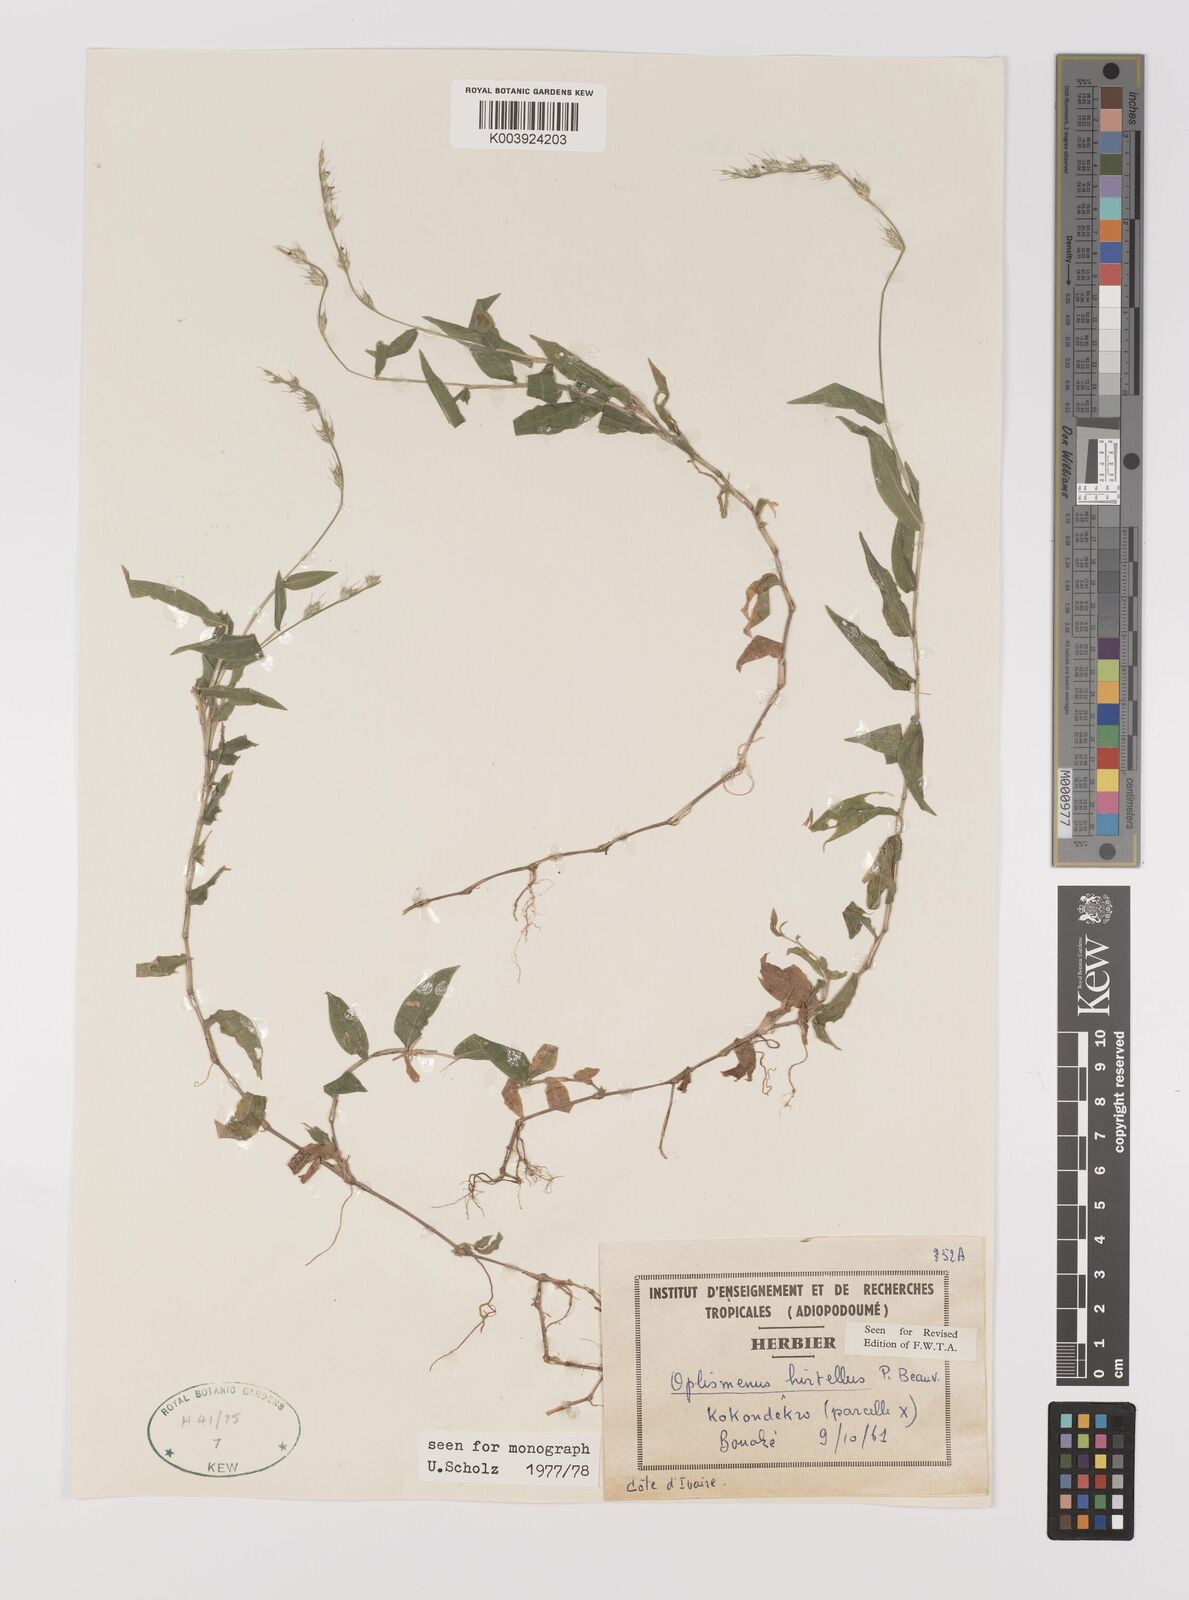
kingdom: Plantae
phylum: Tracheophyta
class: Liliopsida
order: Poales
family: Poaceae
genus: Oplismenus
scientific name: Oplismenus hirtellus
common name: Basketgrass
